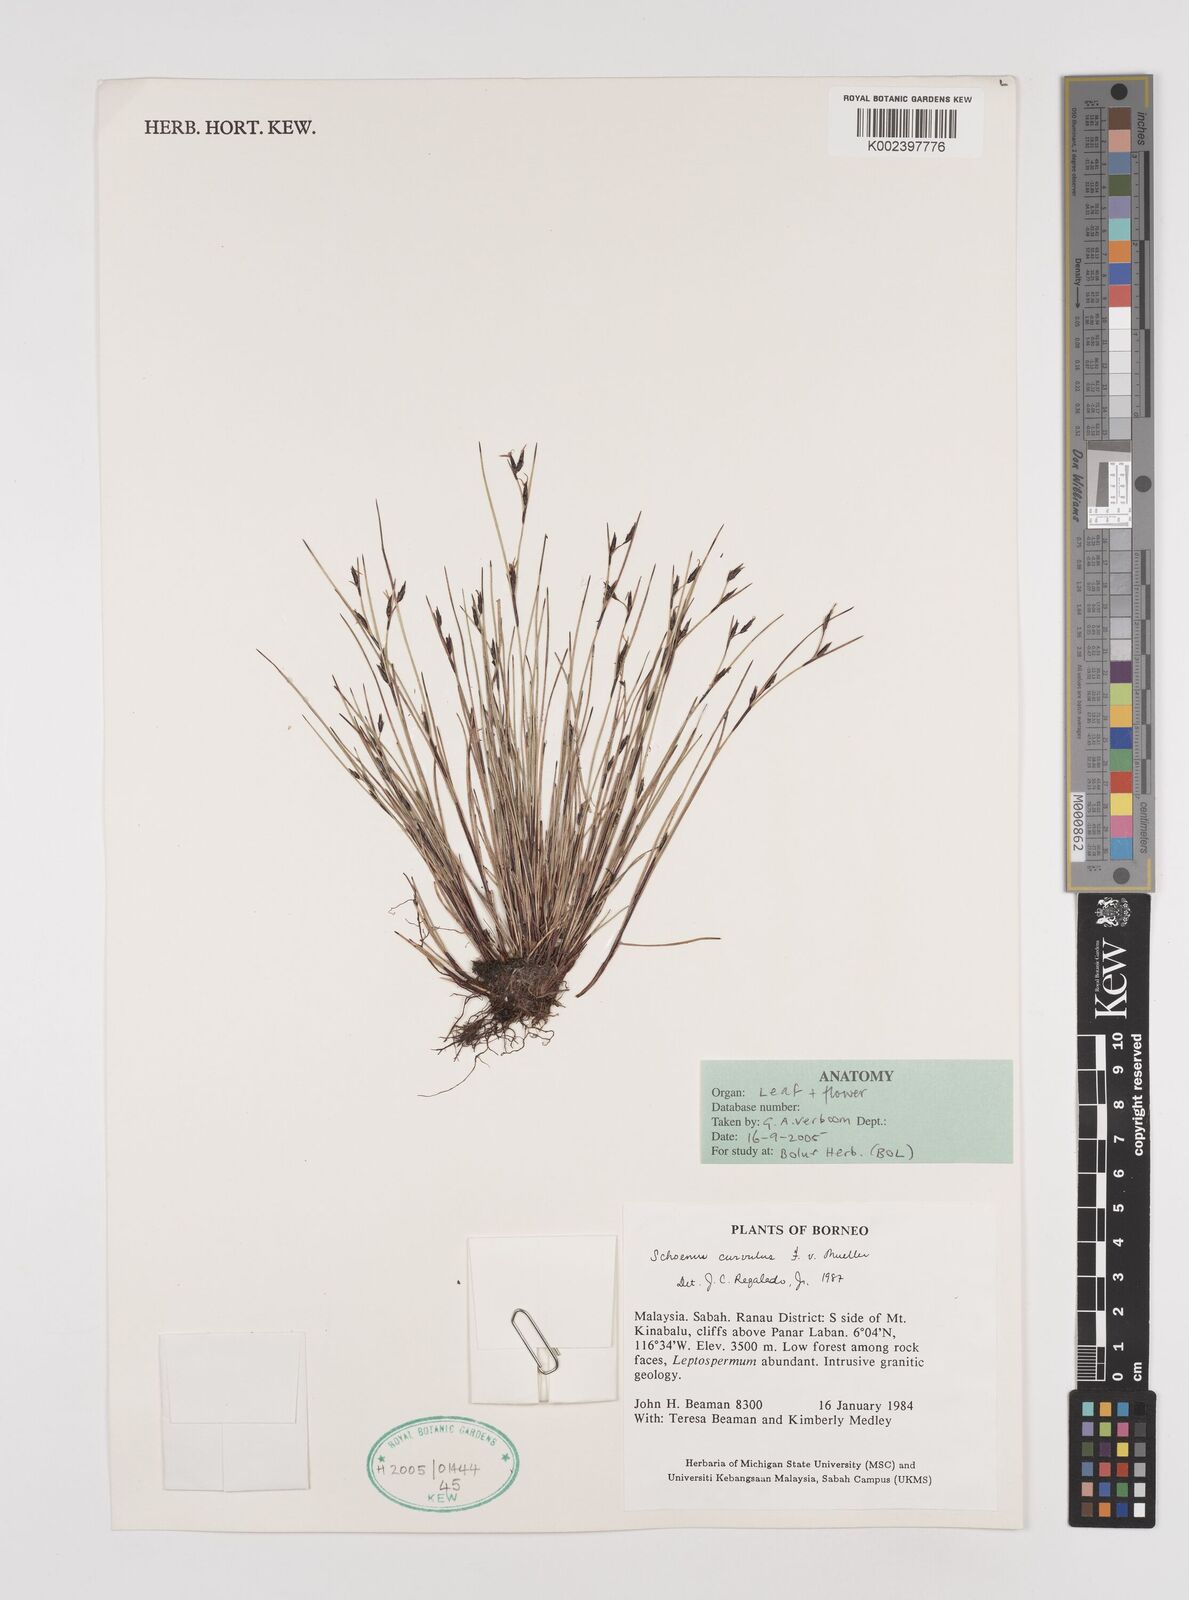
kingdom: Plantae
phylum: Tracheophyta
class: Liliopsida
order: Poales
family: Cyperaceae
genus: Schoenus
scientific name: Schoenus curvulus
